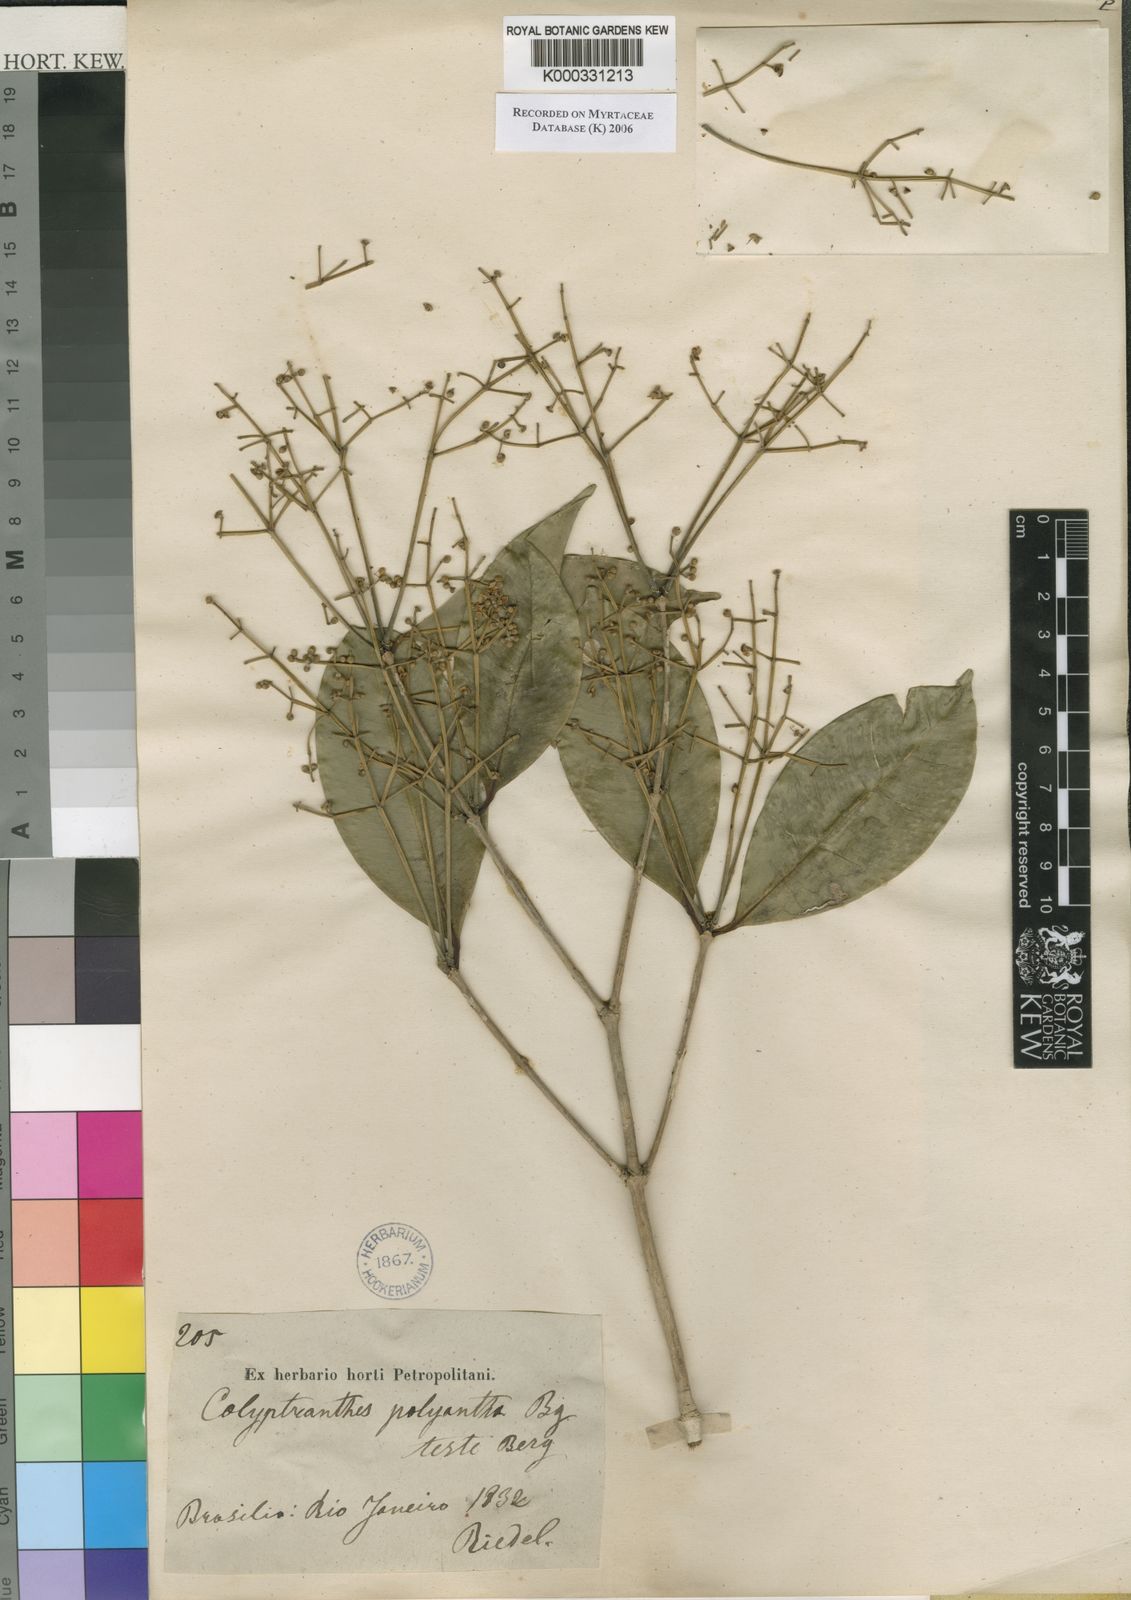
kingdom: Plantae
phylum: Tracheophyta
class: Magnoliopsida
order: Myrtales
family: Myrtaceae
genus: Myrcia
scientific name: Myrcia neolucida
